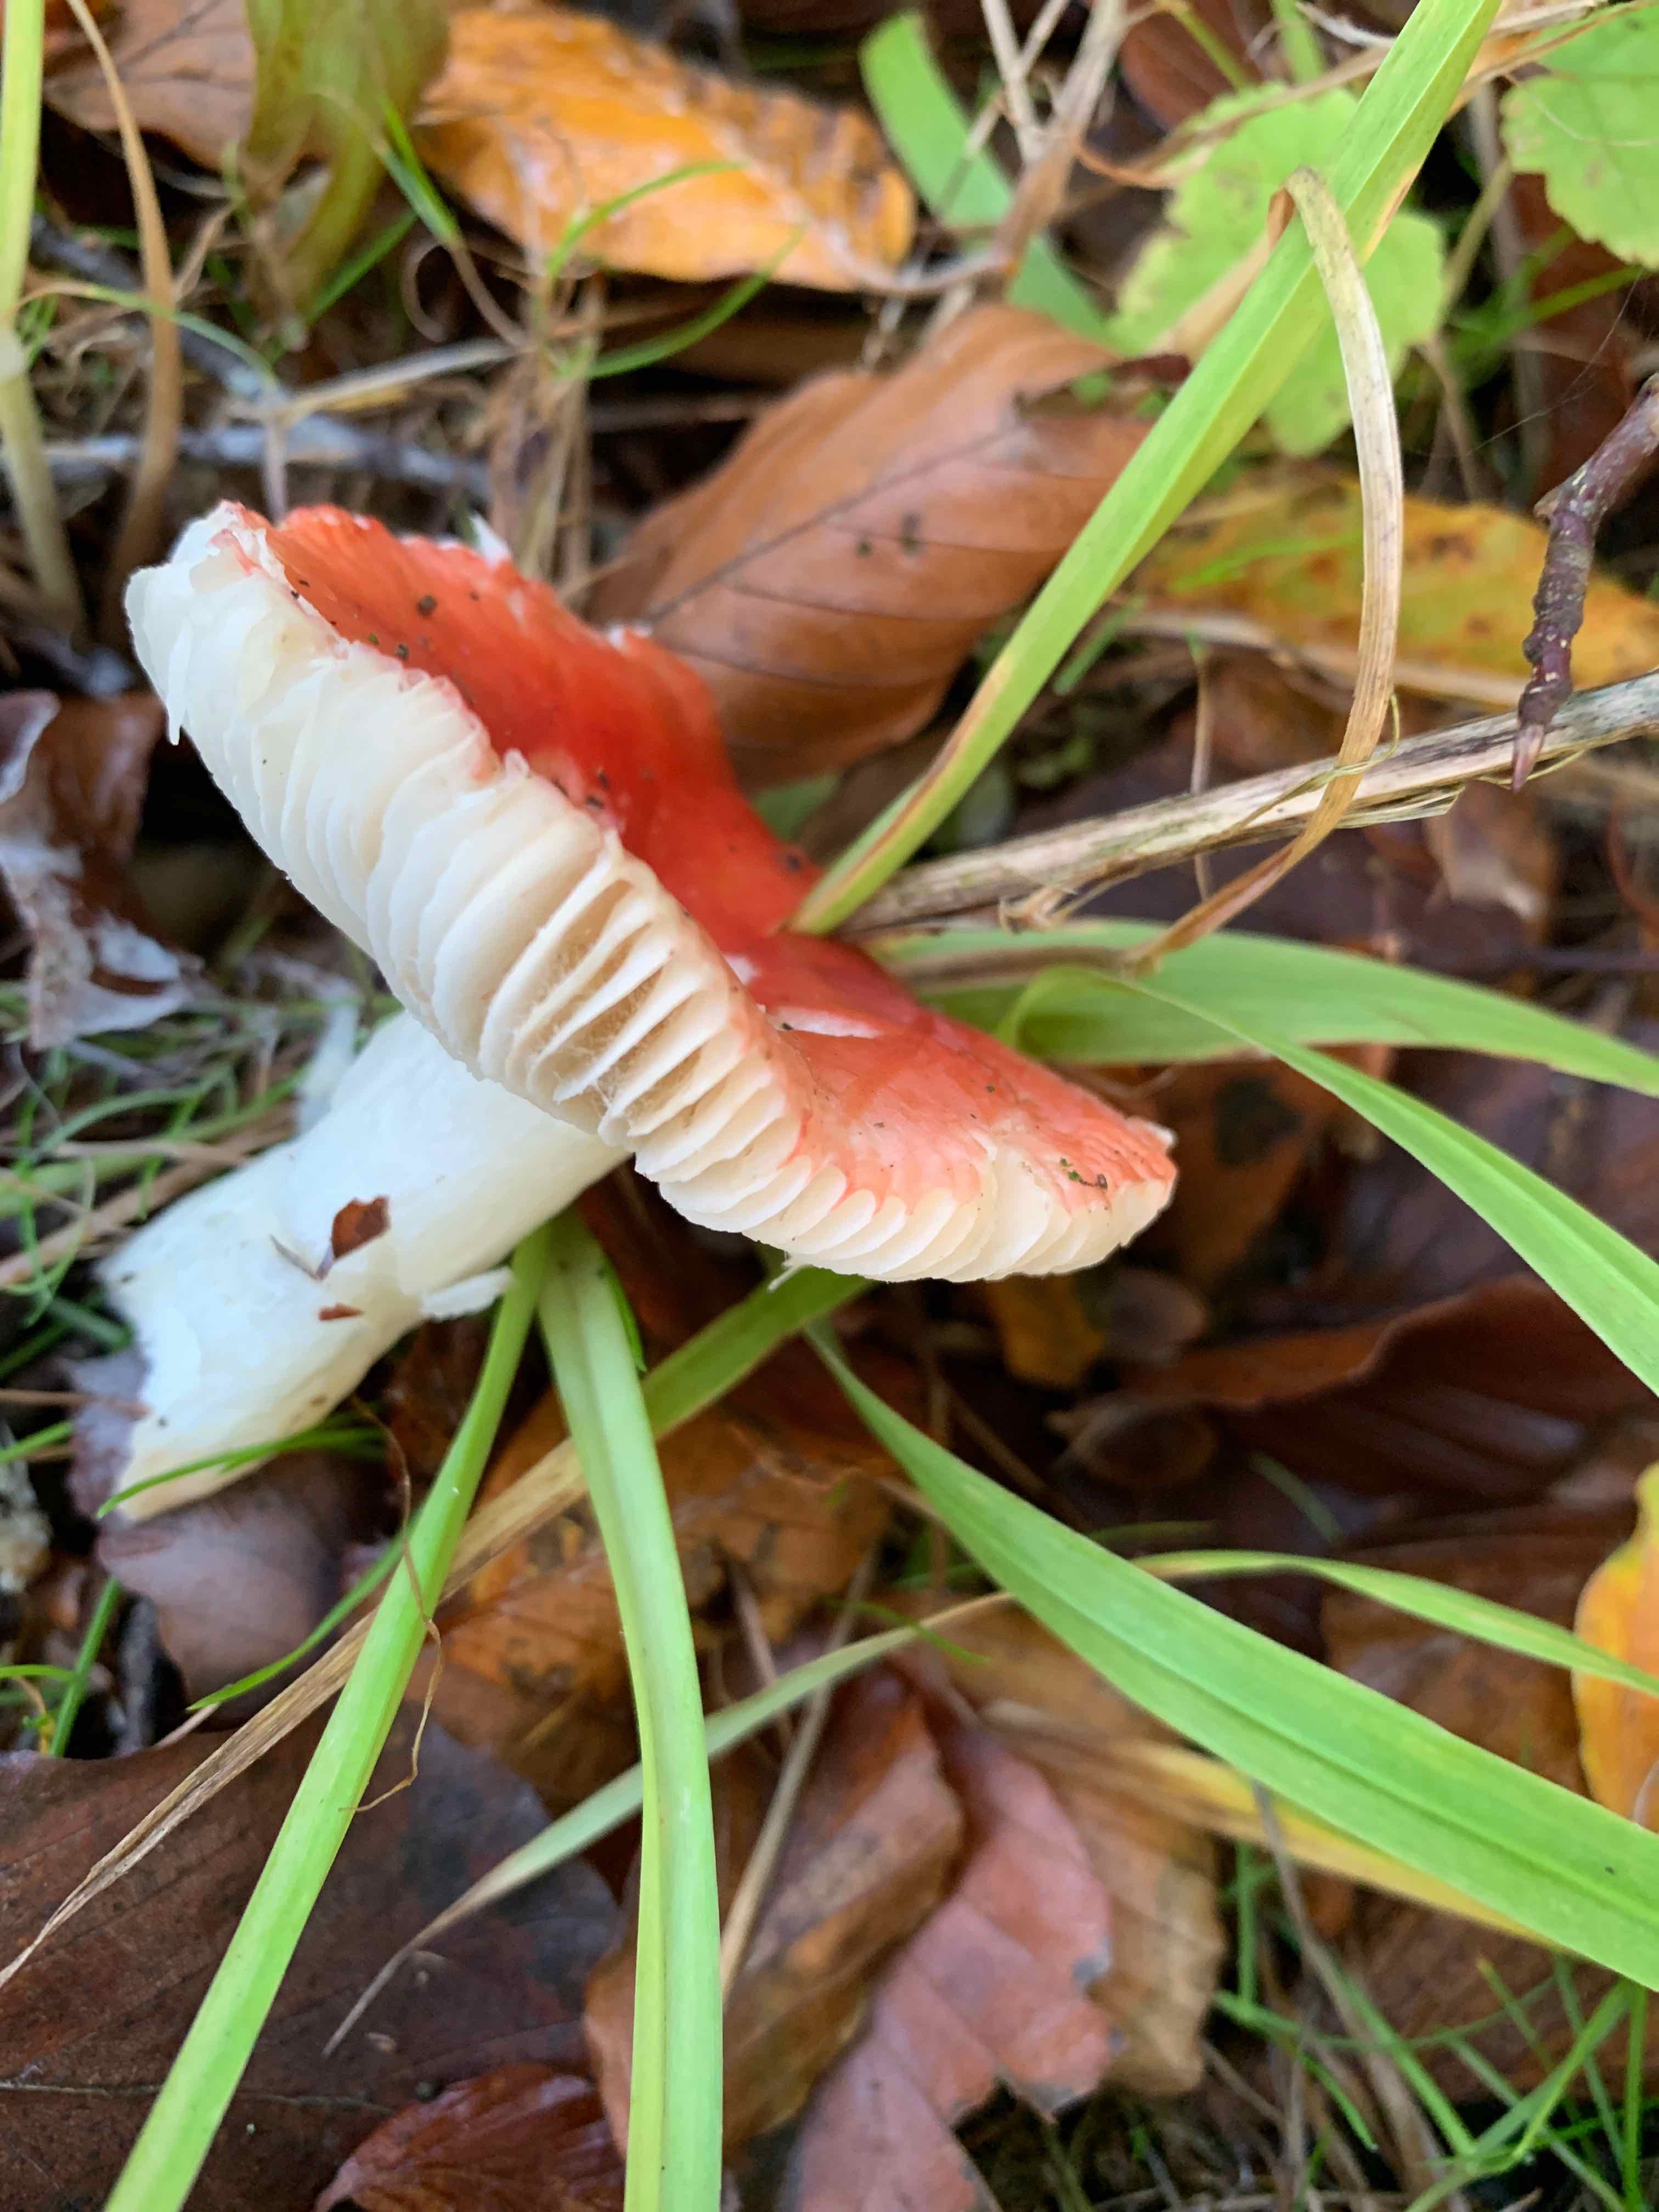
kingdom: Fungi
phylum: Basidiomycota
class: Agaricomycetes
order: Russulales
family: Russulaceae
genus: Russula
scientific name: Russula
